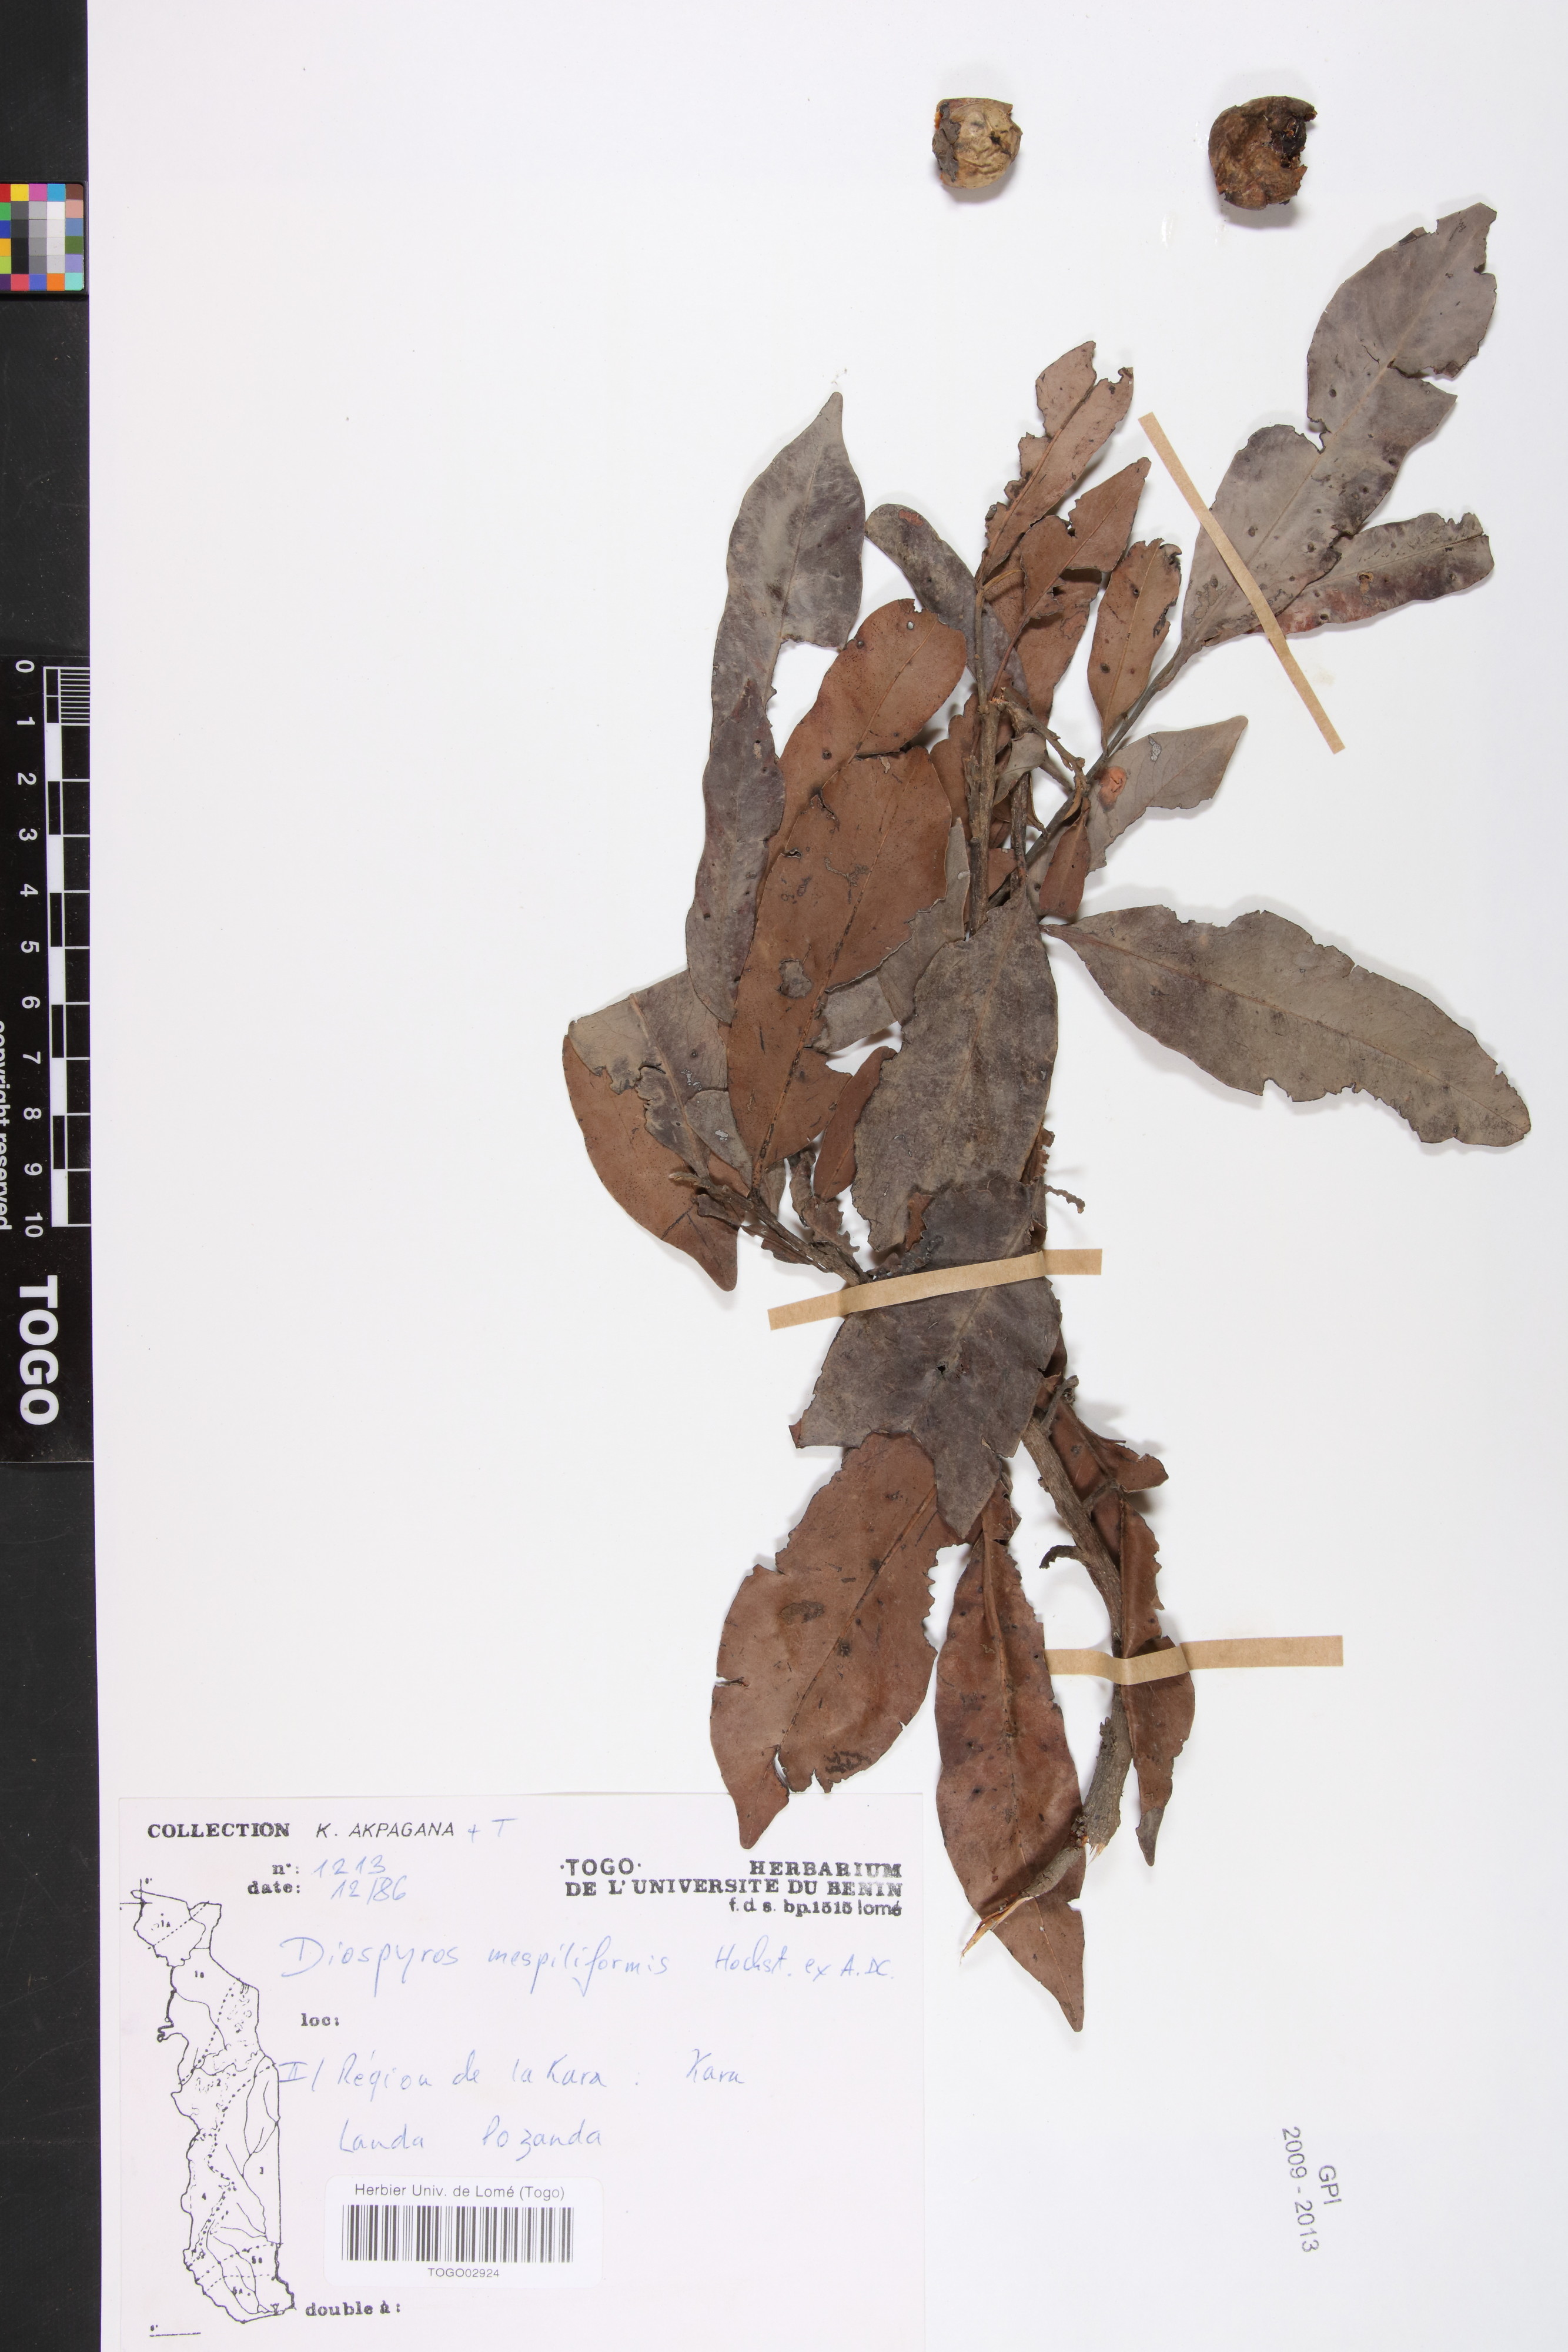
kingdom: Plantae
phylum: Tracheophyta
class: Magnoliopsida
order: Ericales
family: Ebenaceae
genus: Diospyros
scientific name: Diospyros mespiliformis
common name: Ebony diospyros
